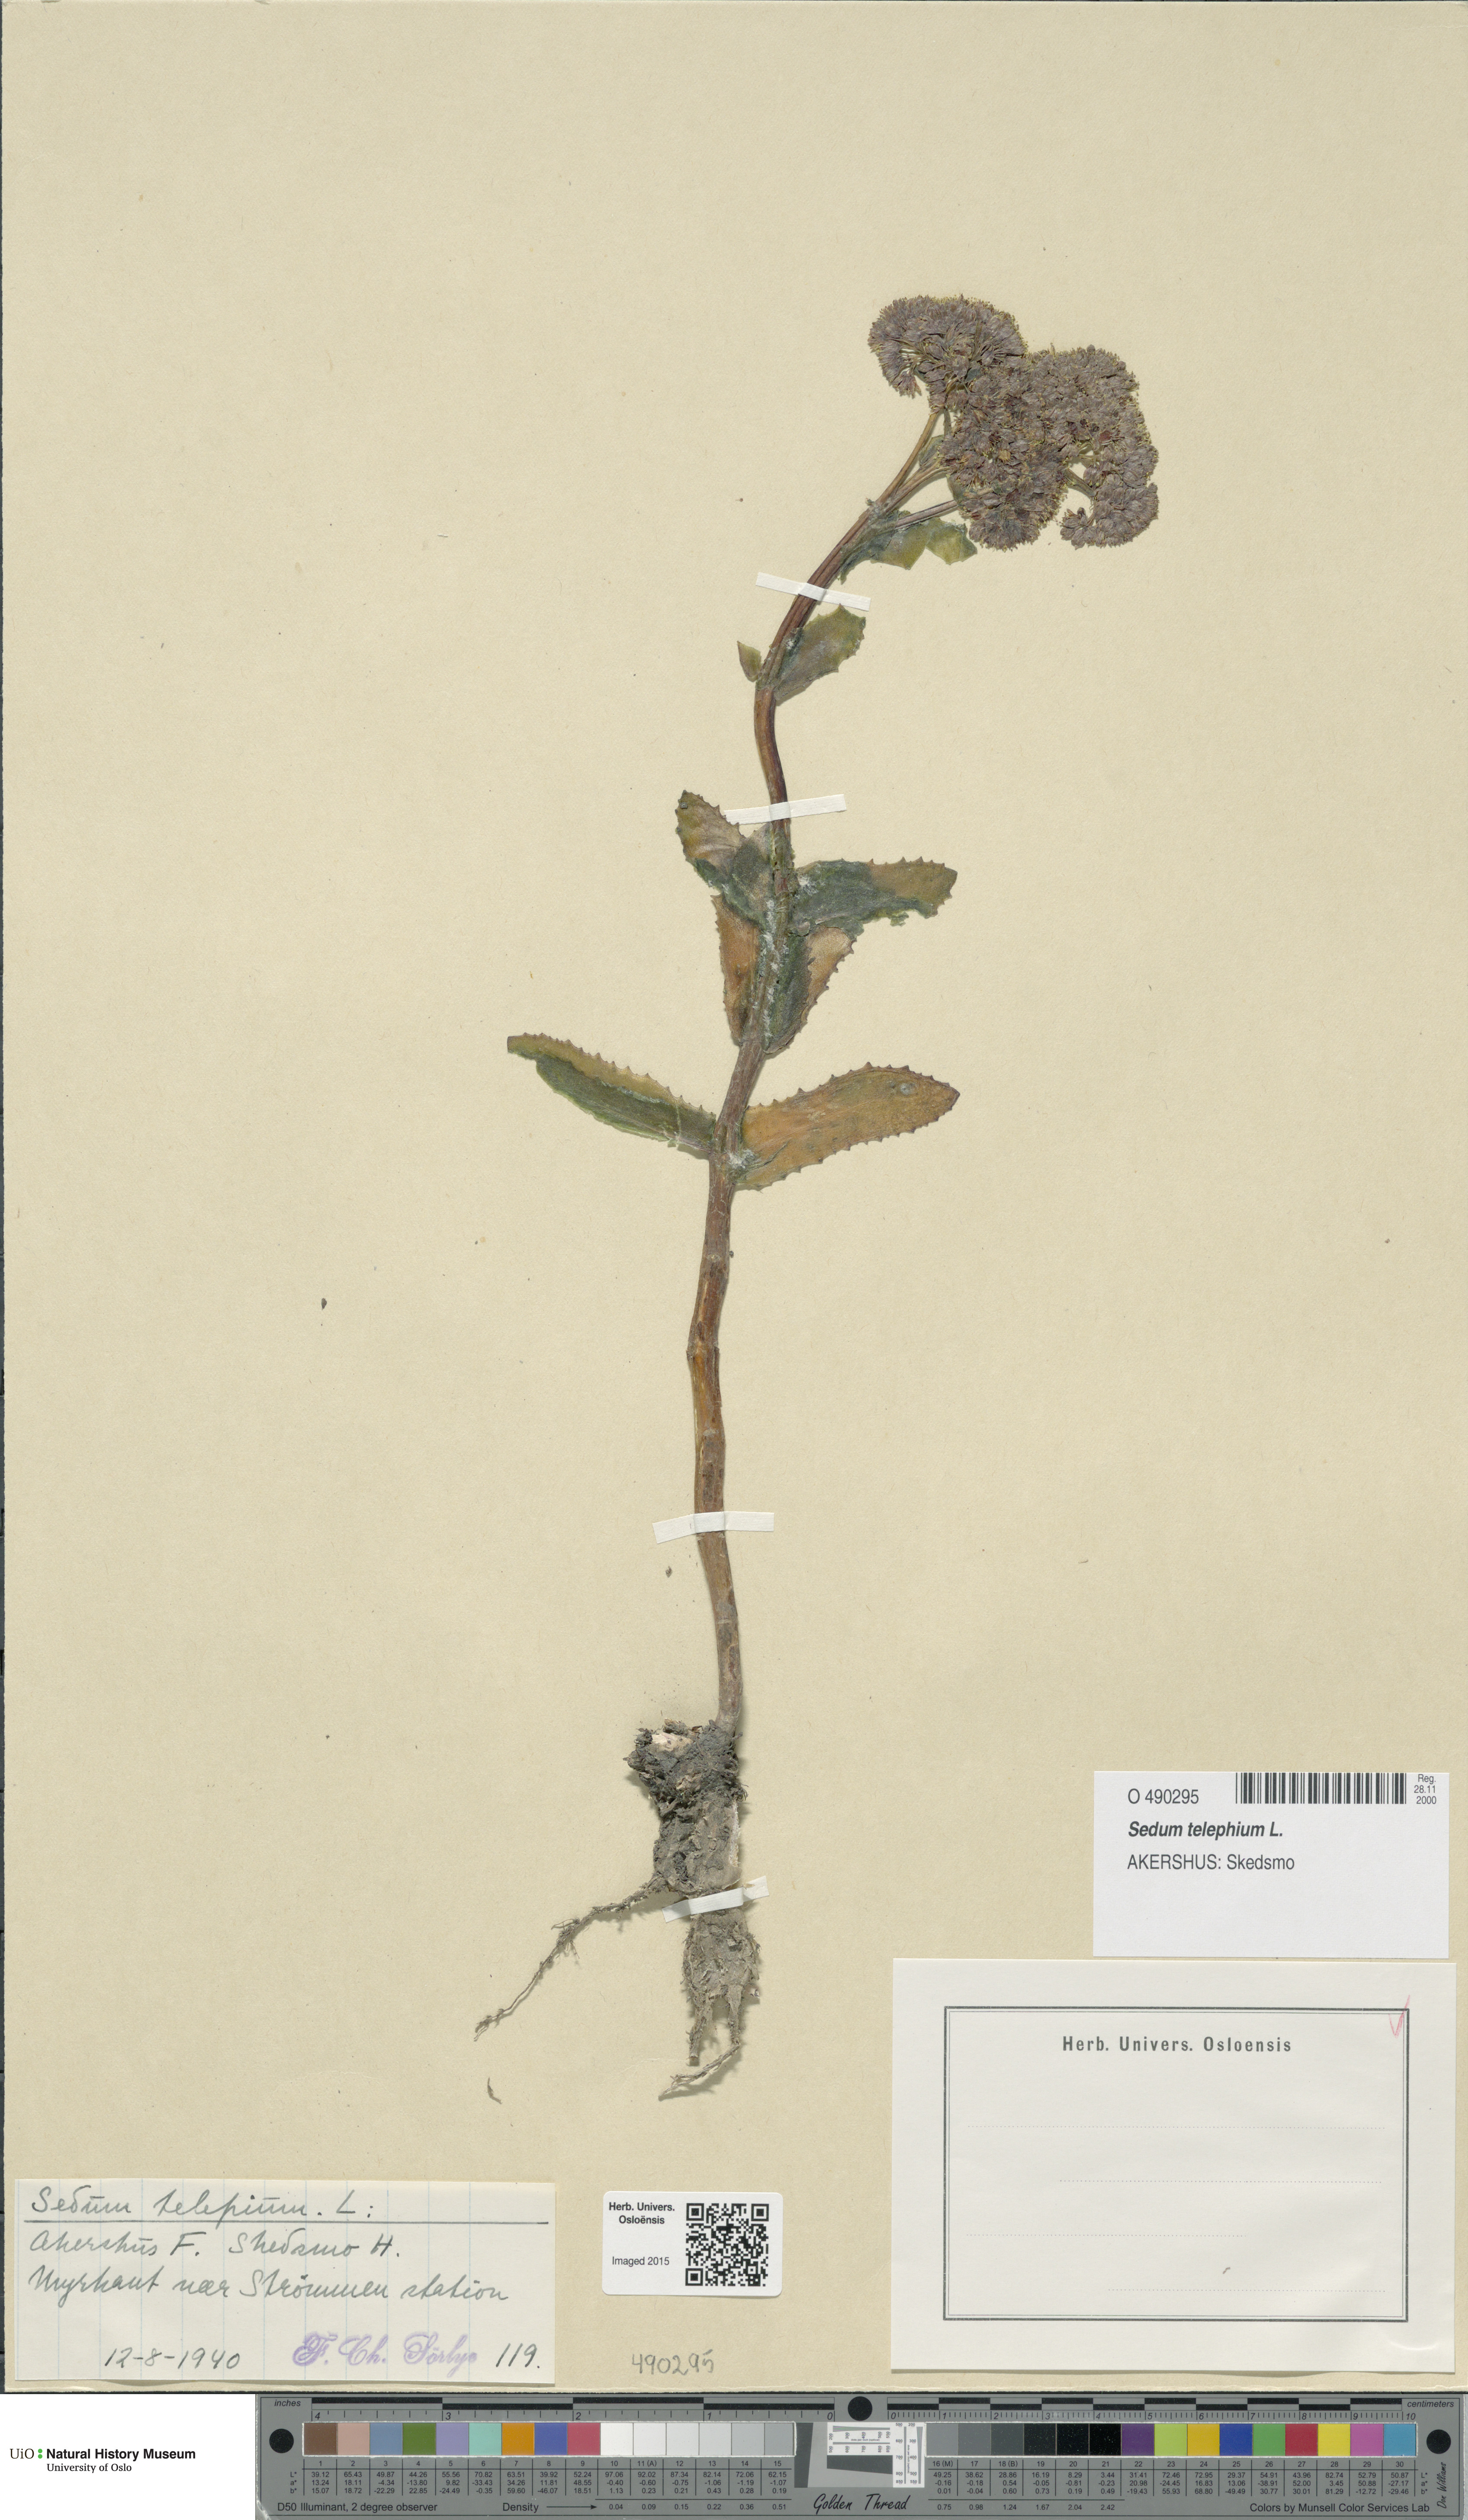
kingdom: Plantae
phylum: Tracheophyta
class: Magnoliopsida
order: Saxifragales
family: Crassulaceae
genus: Hylotelephium
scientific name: Hylotelephium telephium
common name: Live-forever
